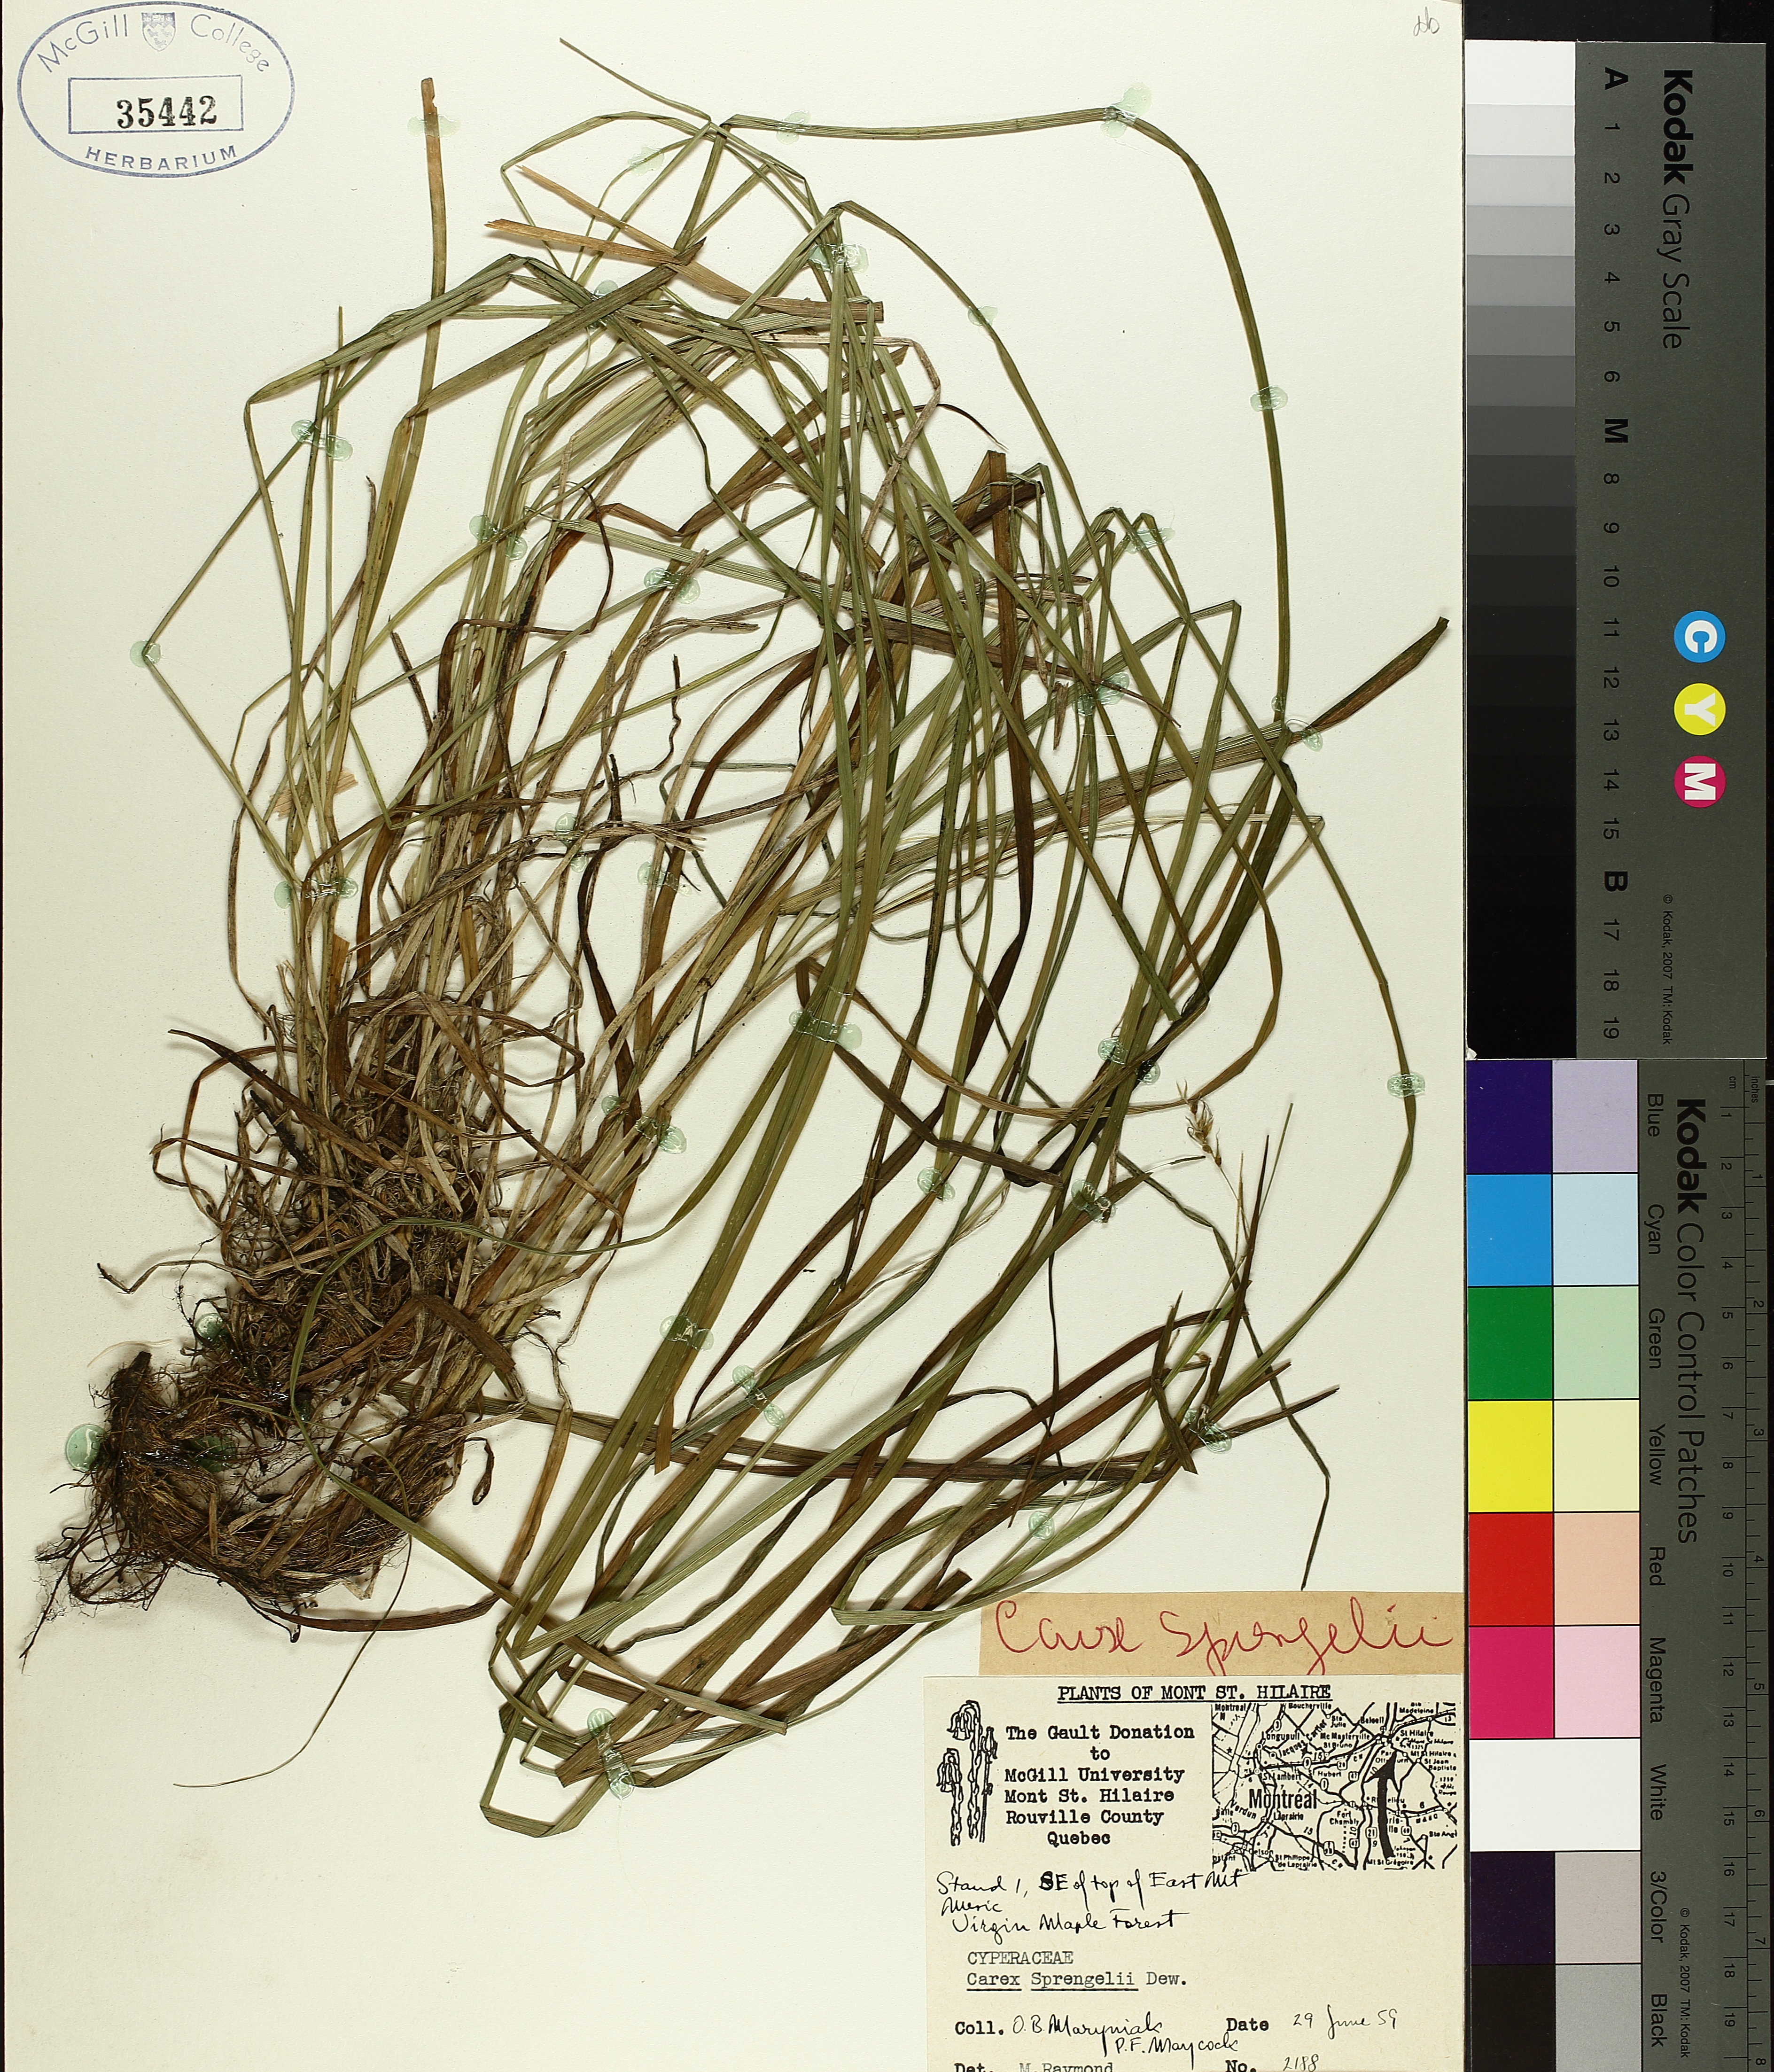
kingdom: Plantae
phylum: Tracheophyta
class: Liliopsida
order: Poales
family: Cyperaceae
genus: Carex
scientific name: Carex sprengelii
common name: Long-beaked sedge
